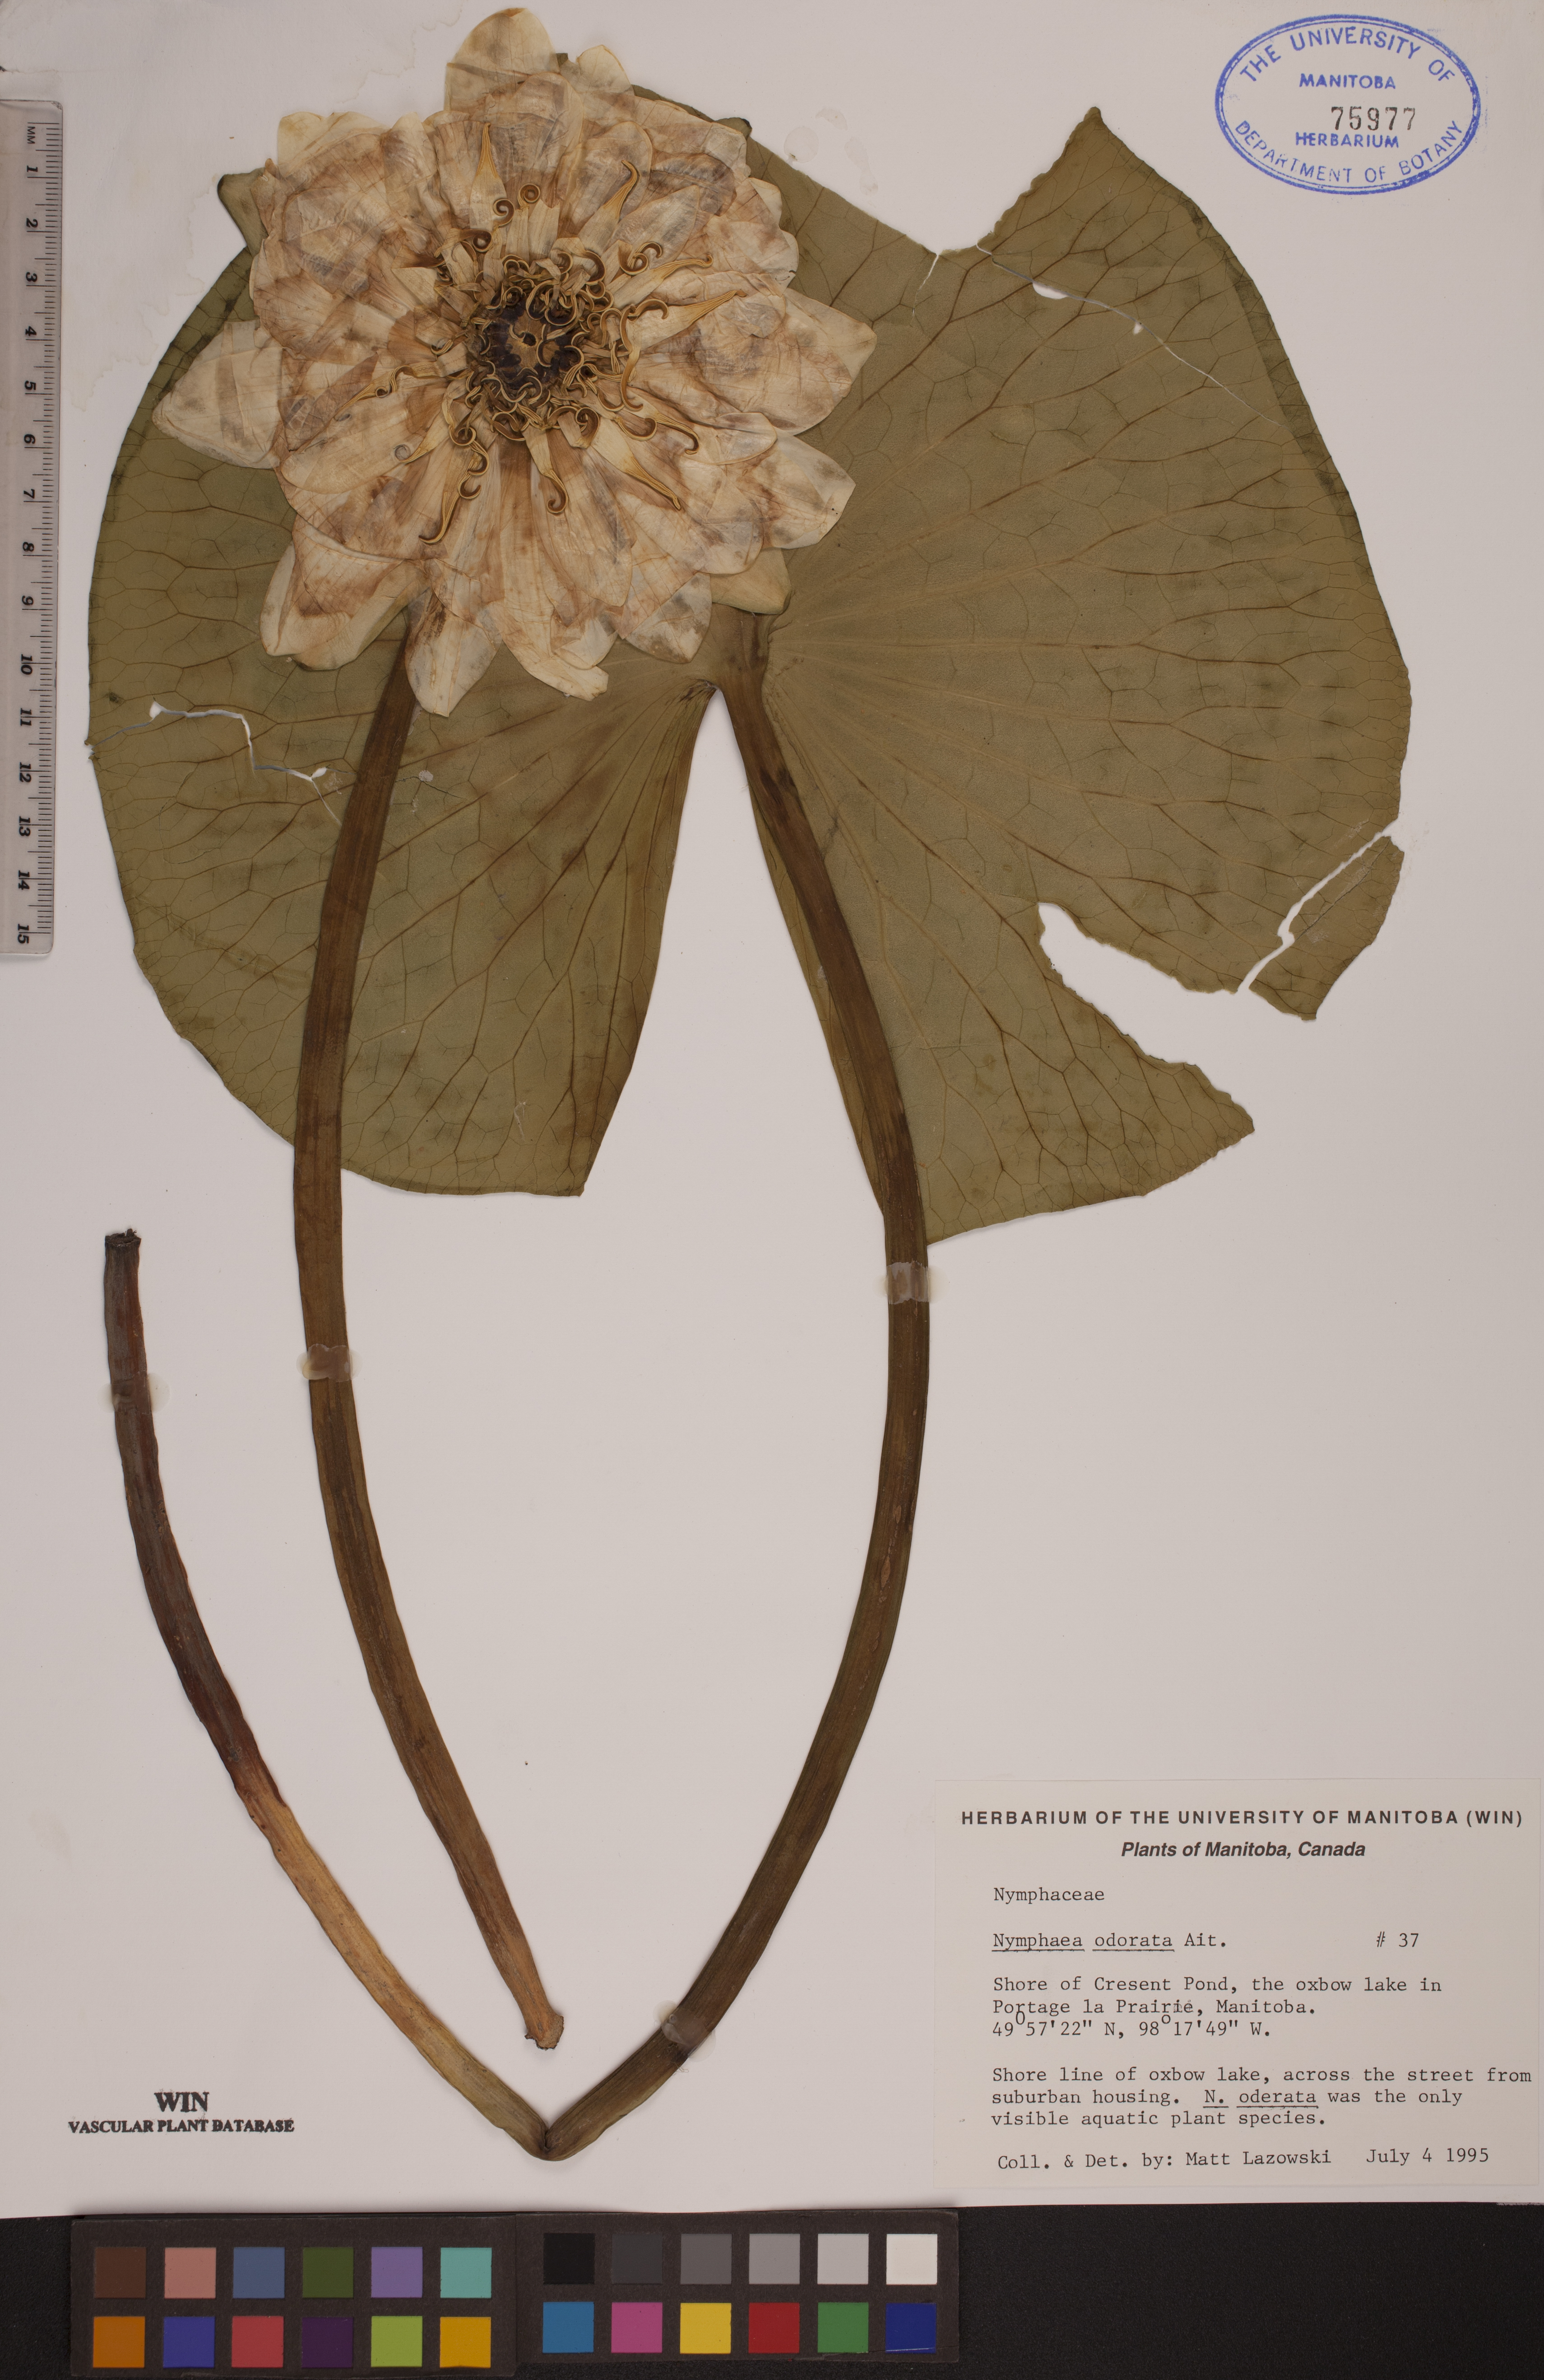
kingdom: Plantae
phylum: Tracheophyta
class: Magnoliopsida
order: Nymphaeales
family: Nymphaeaceae
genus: Nymphaea
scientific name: Nymphaea odorata
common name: Fragrant water-lily
